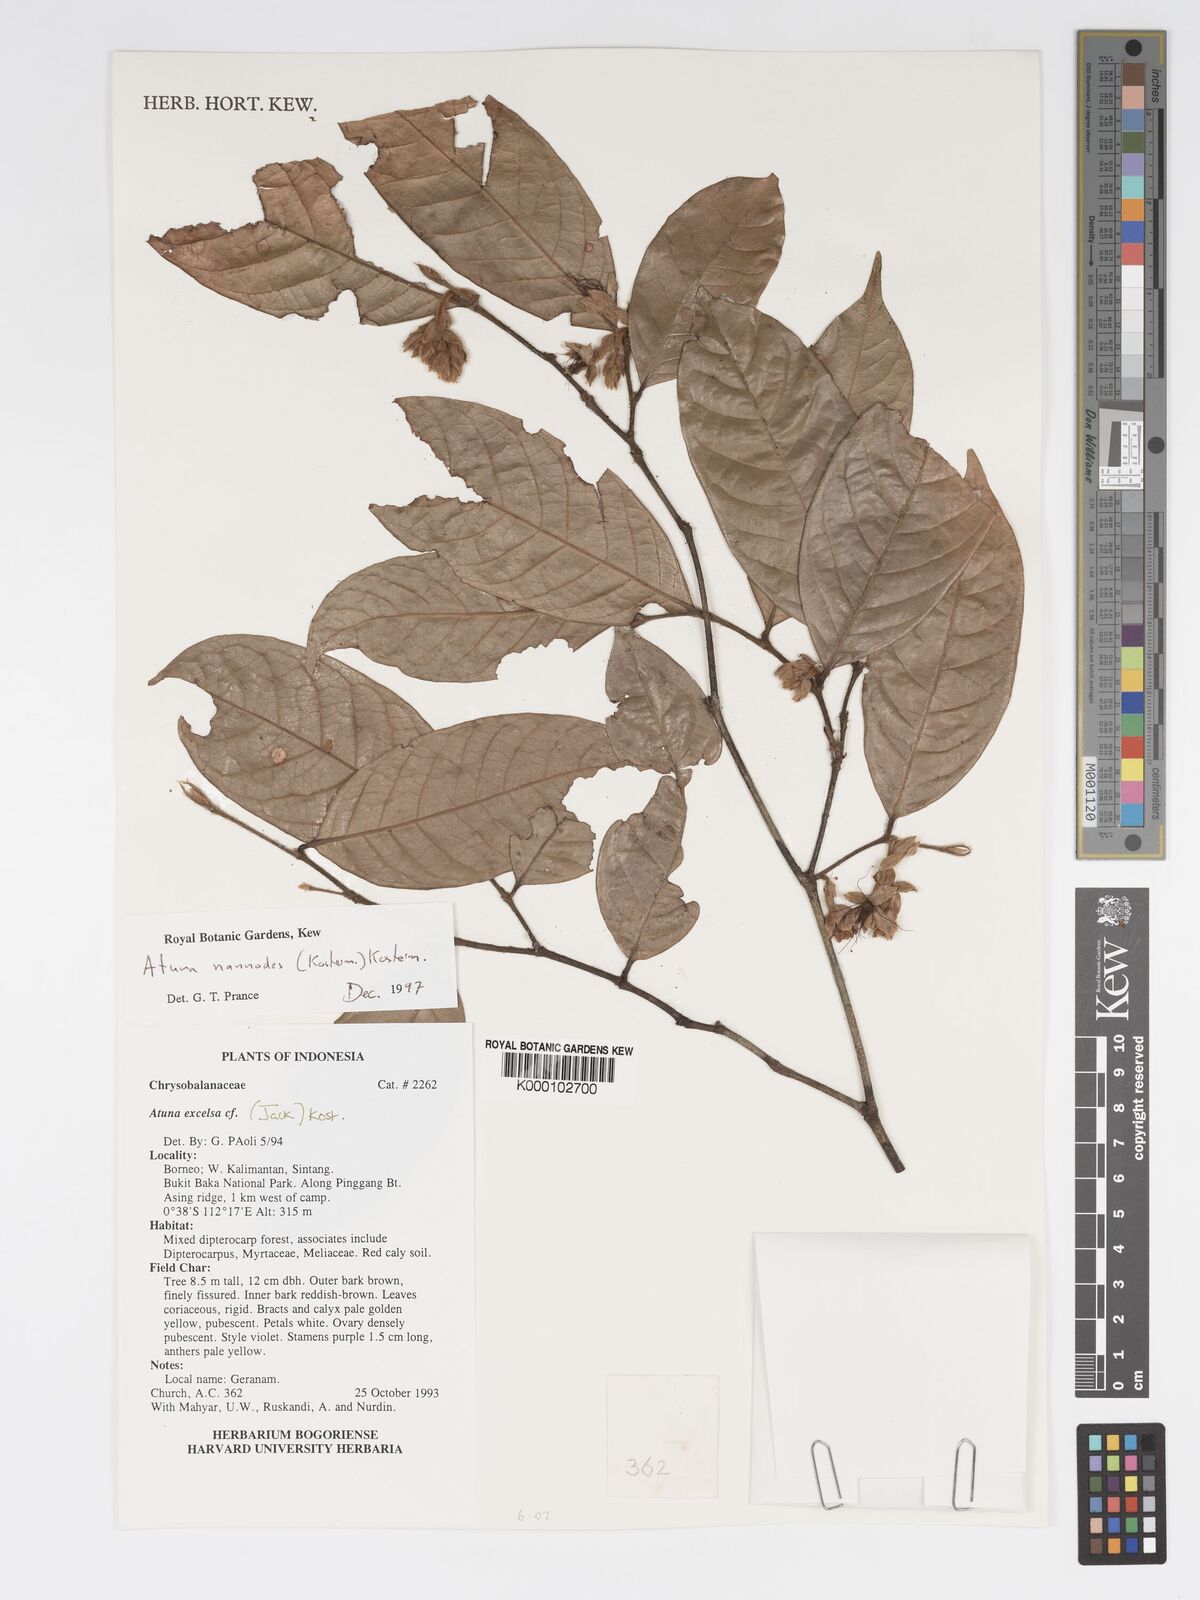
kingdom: Plantae
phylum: Tracheophyta
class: Magnoliopsida
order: Malpighiales
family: Chrysobalanaceae
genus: Atuna
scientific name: Atuna nannodes
